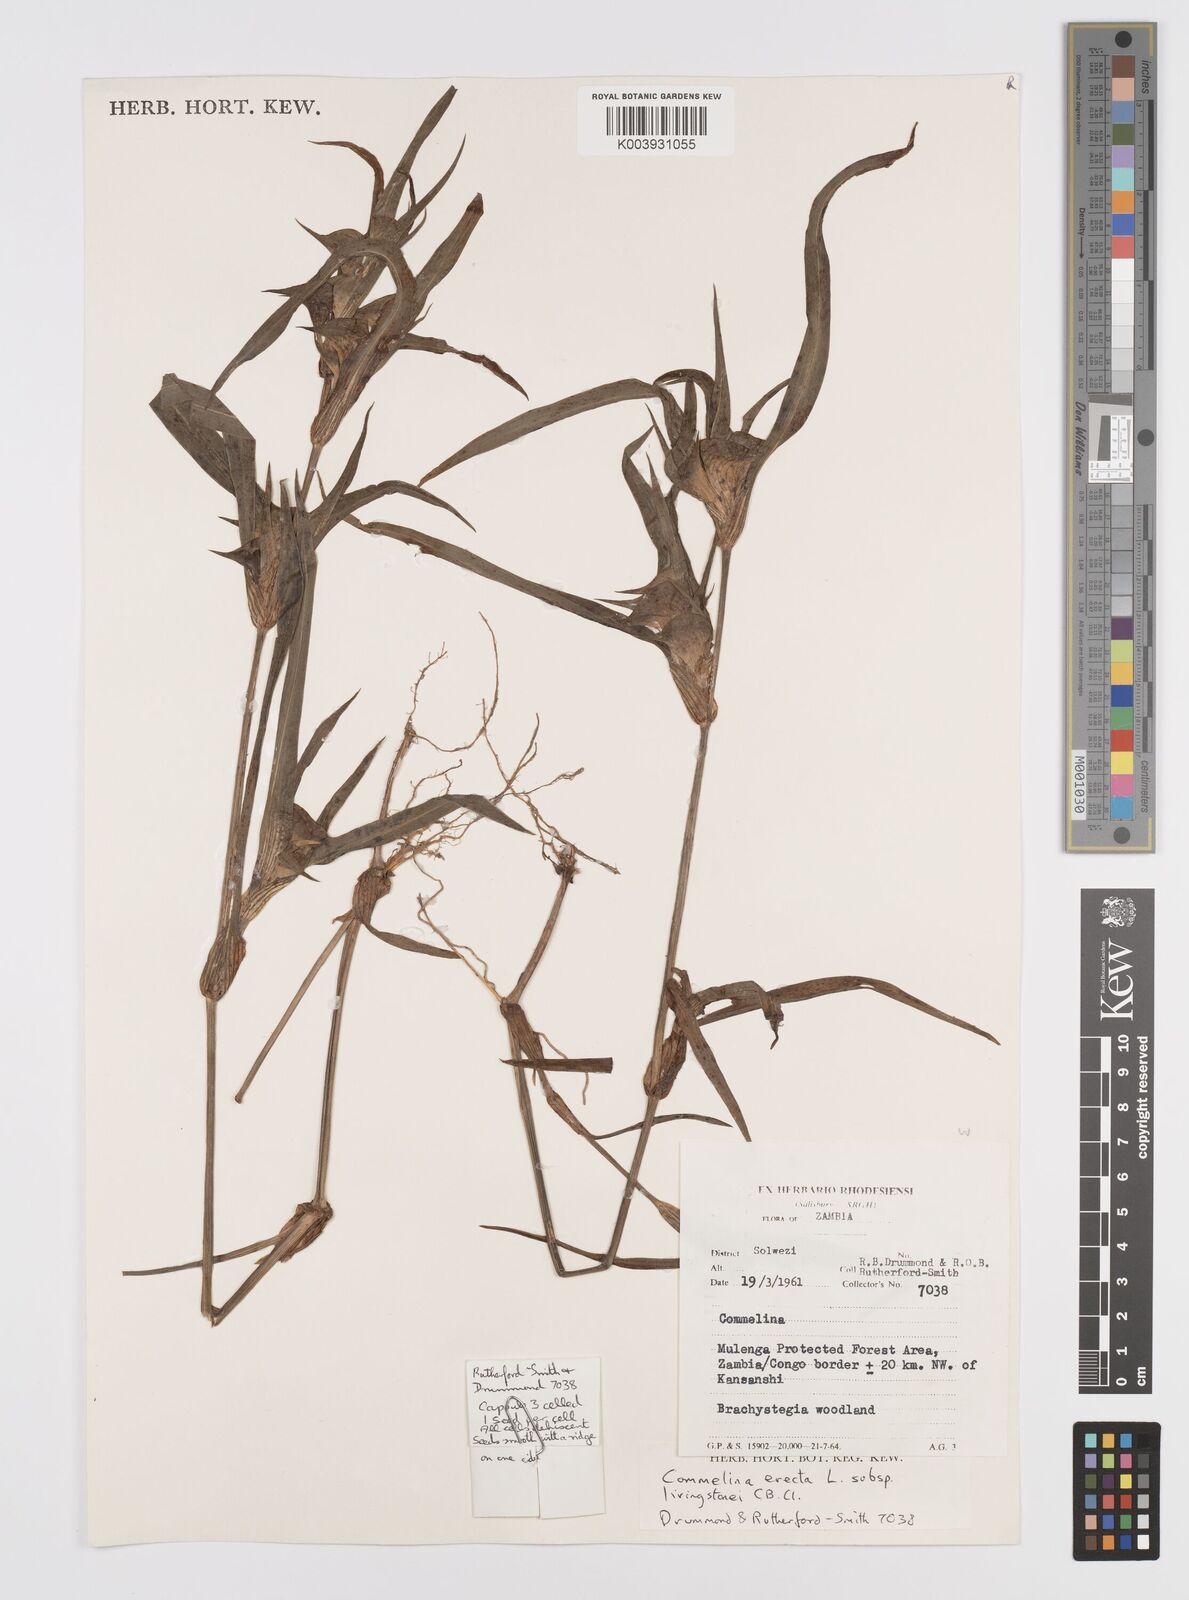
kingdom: Plantae
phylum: Tracheophyta
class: Liliopsida
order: Commelinales
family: Commelinaceae
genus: Commelina
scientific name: Commelina aspera
